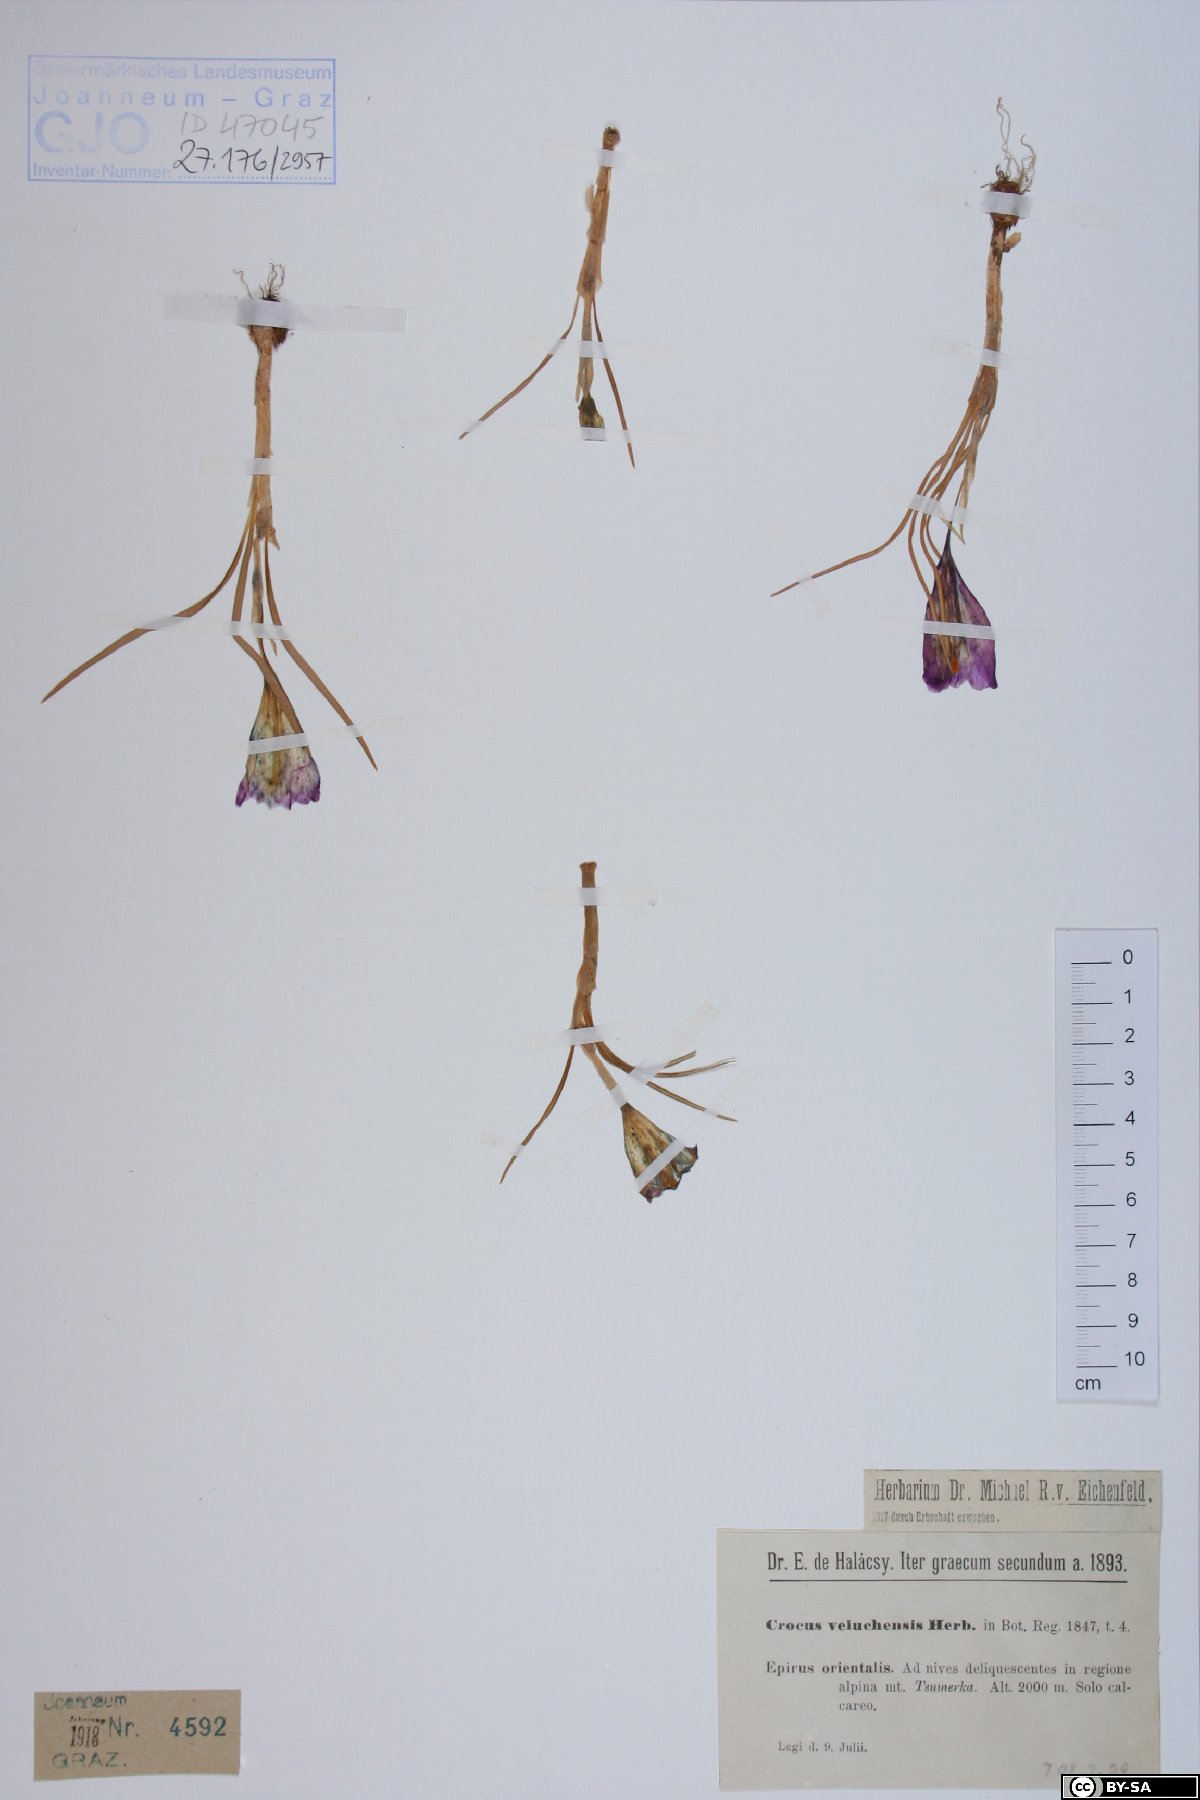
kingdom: Plantae
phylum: Tracheophyta
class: Liliopsida
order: Asparagales
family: Iridaceae
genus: Crocus
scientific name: Crocus veluchensis
